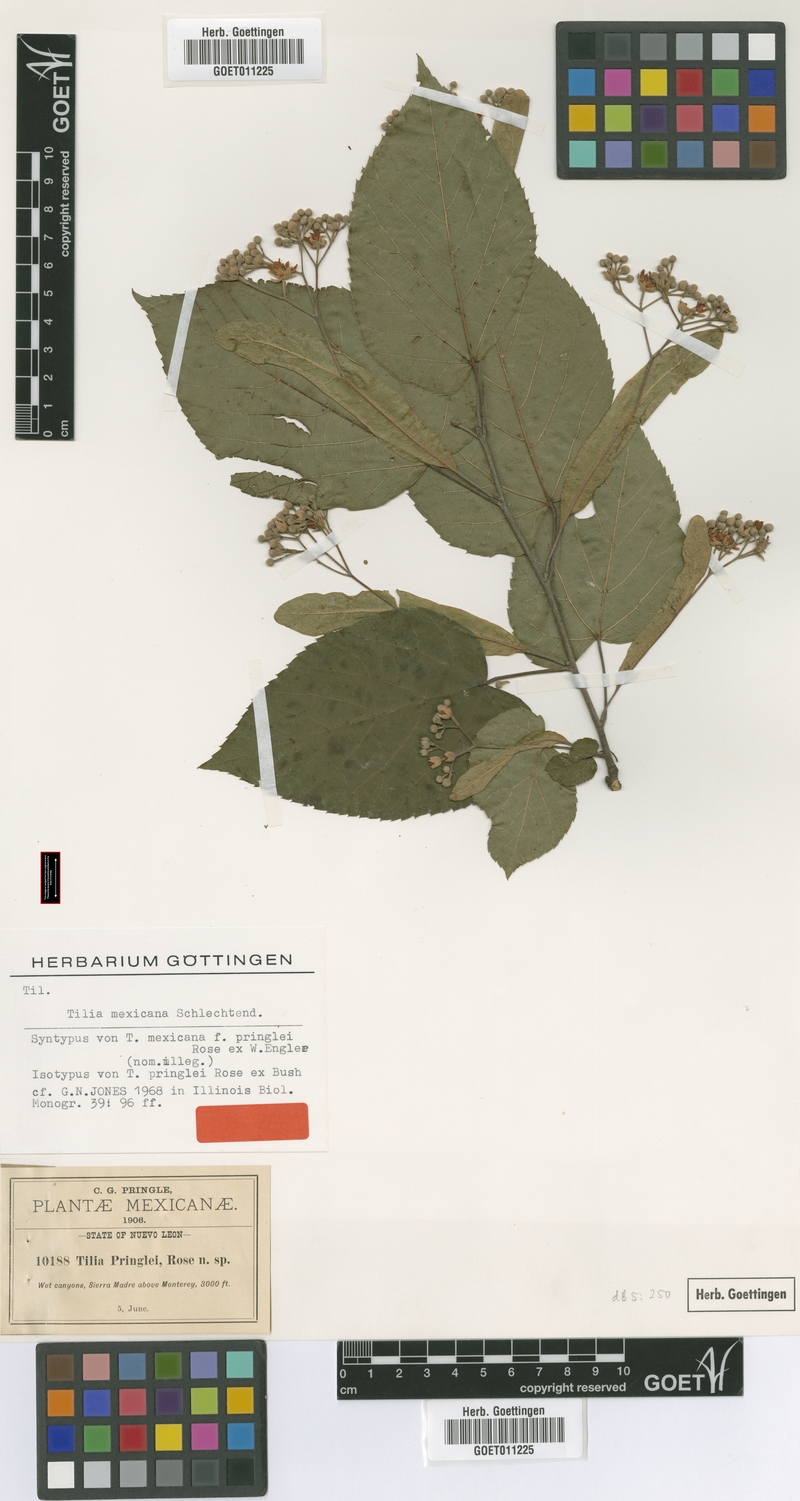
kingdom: Plantae
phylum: Tracheophyta
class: Magnoliopsida
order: Malvales
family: Malvaceae
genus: Tilia
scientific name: Tilia mexicana
